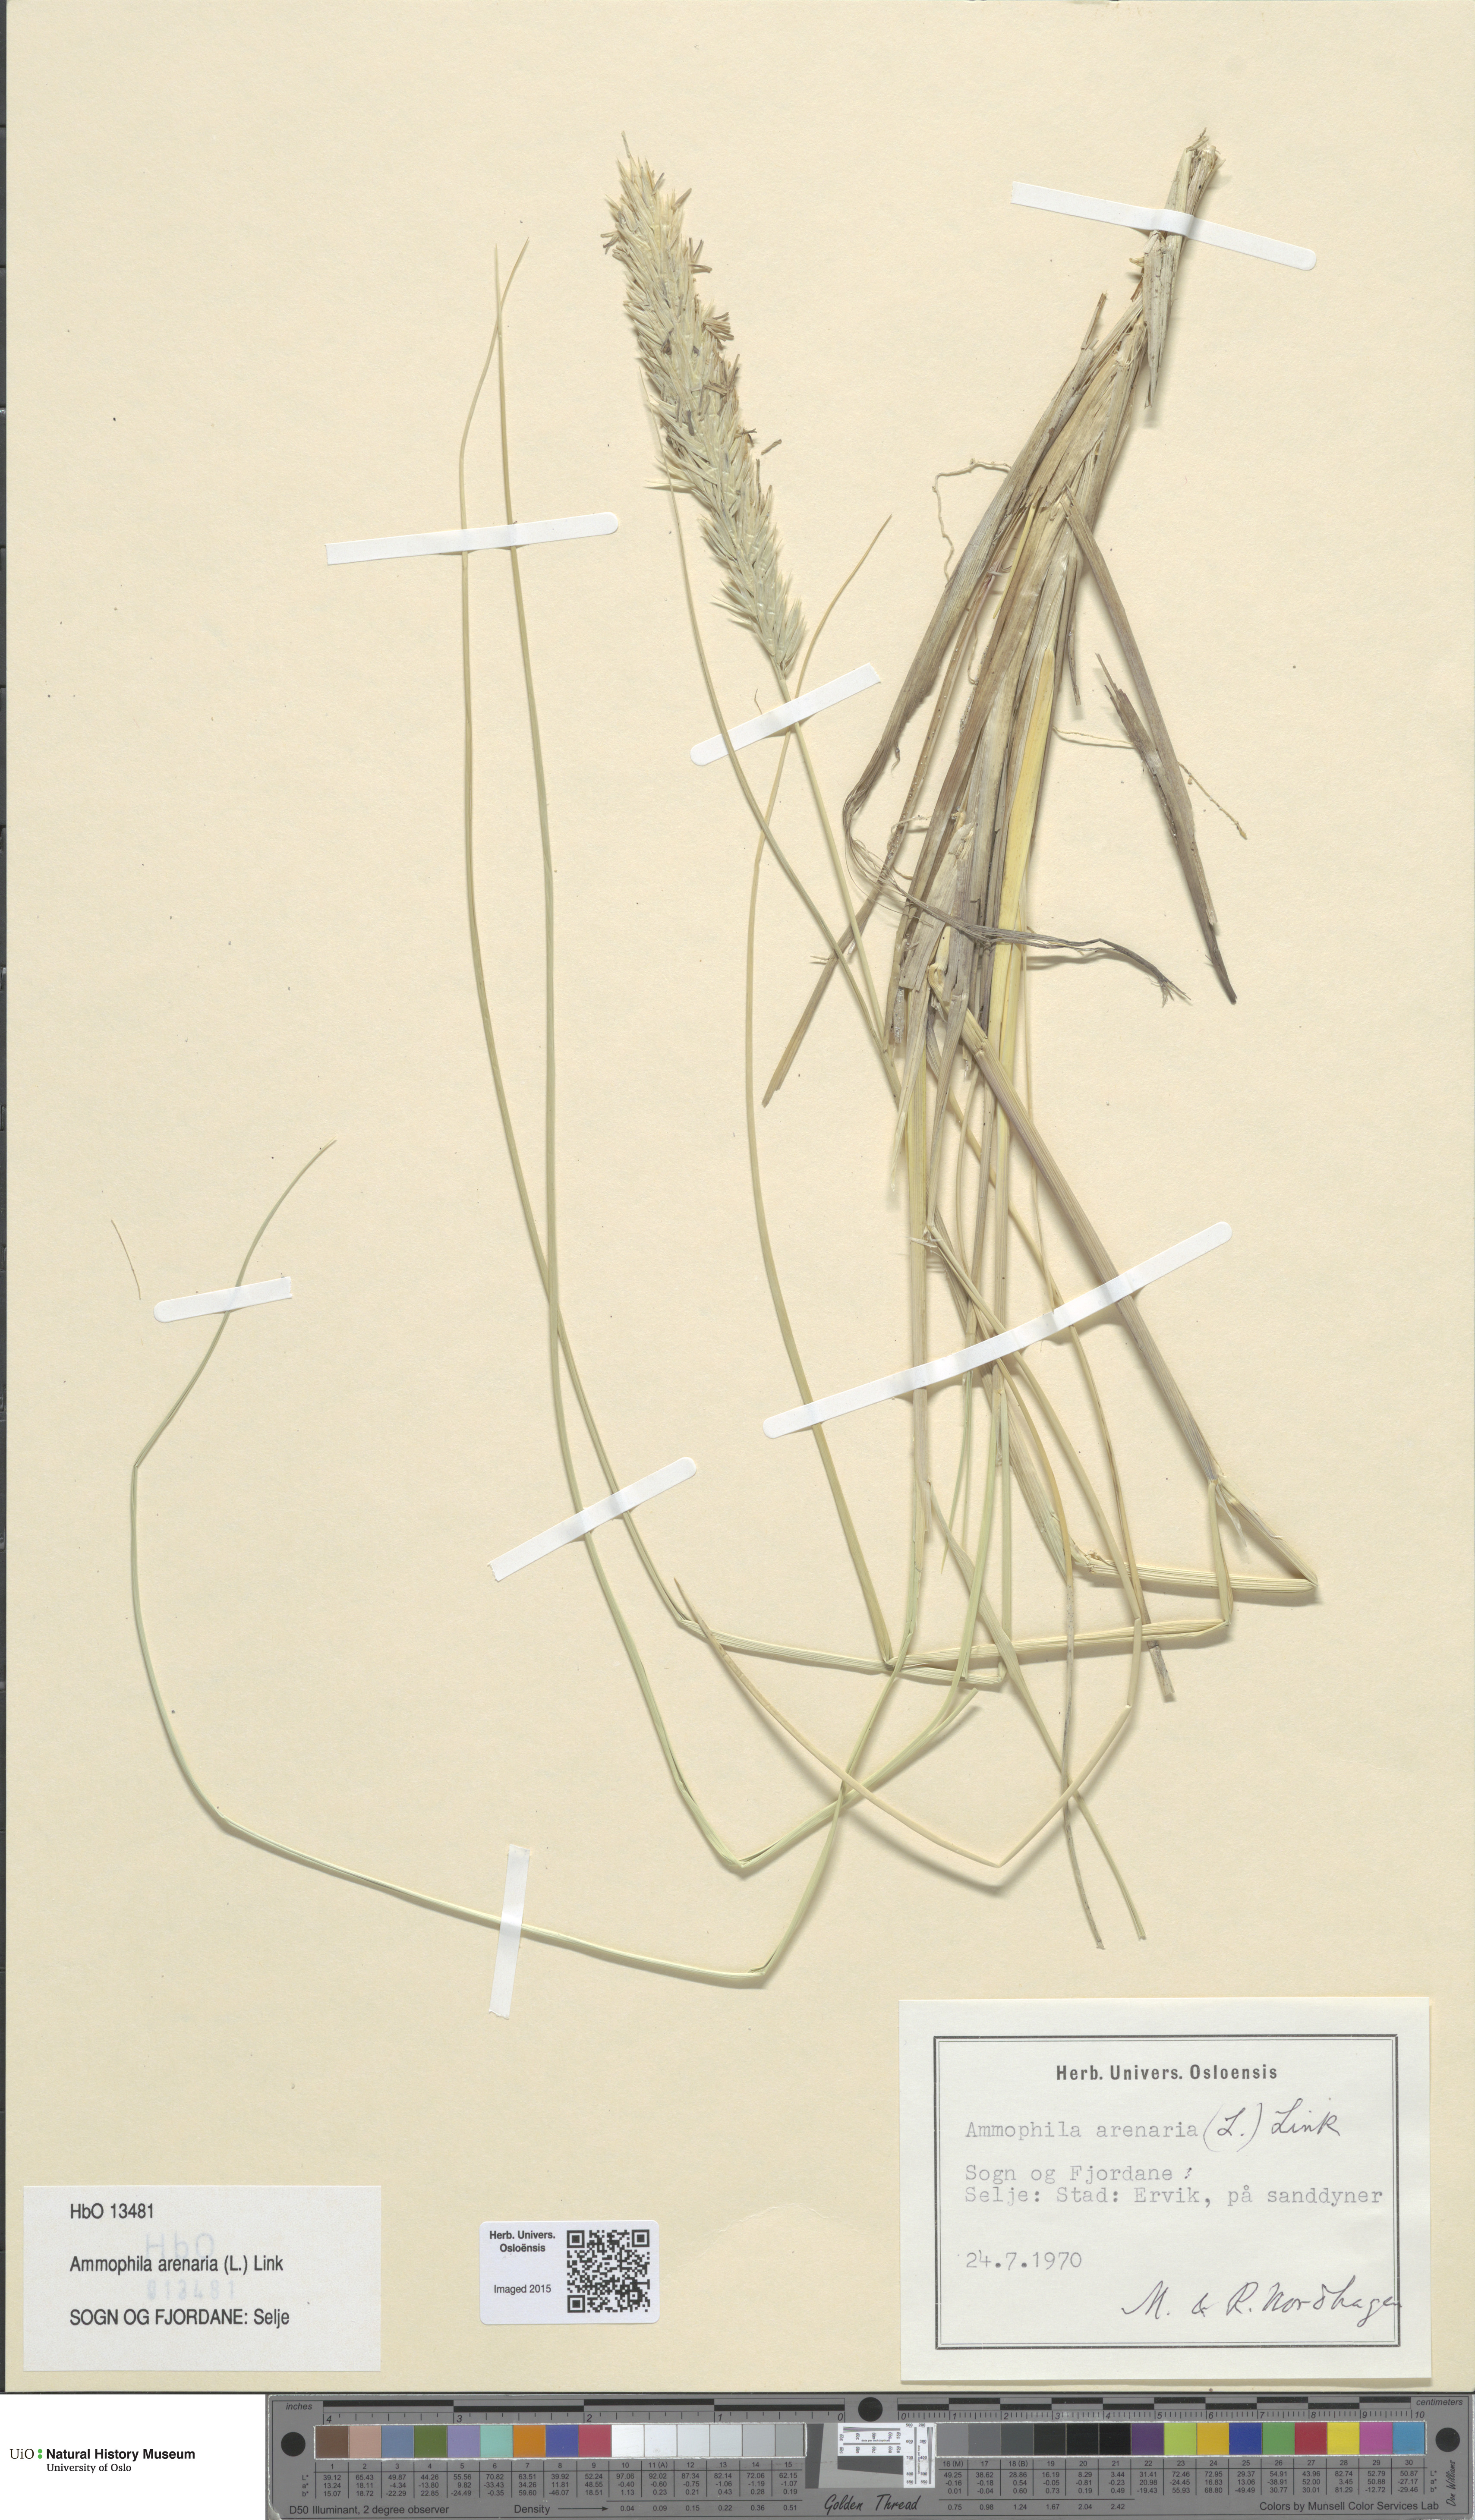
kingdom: Plantae
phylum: Tracheophyta
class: Liliopsida
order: Poales
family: Poaceae
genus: Calamagrostis
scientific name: Calamagrostis arenaria
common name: European beachgrass
